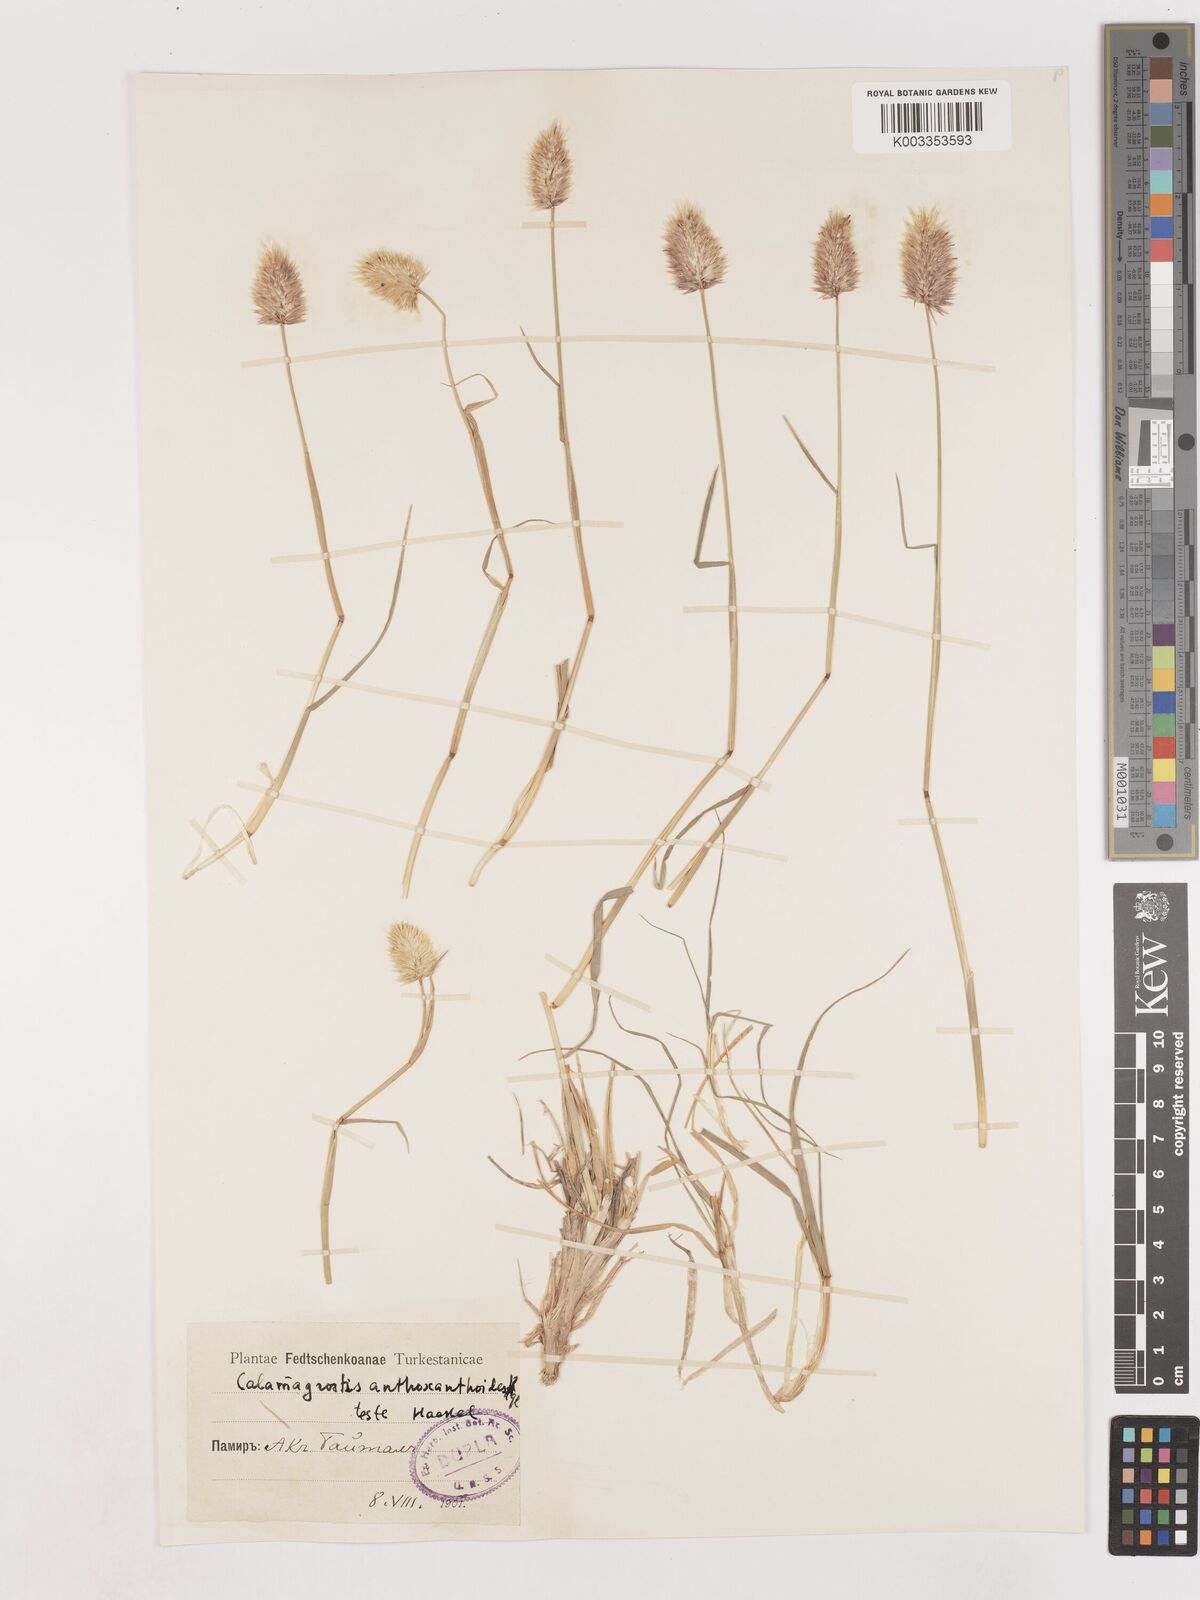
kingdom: Plantae
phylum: Tracheophyta
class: Liliopsida
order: Poales
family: Poaceae
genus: Calamagrostis
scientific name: Calamagrostis anthoxanthoides
